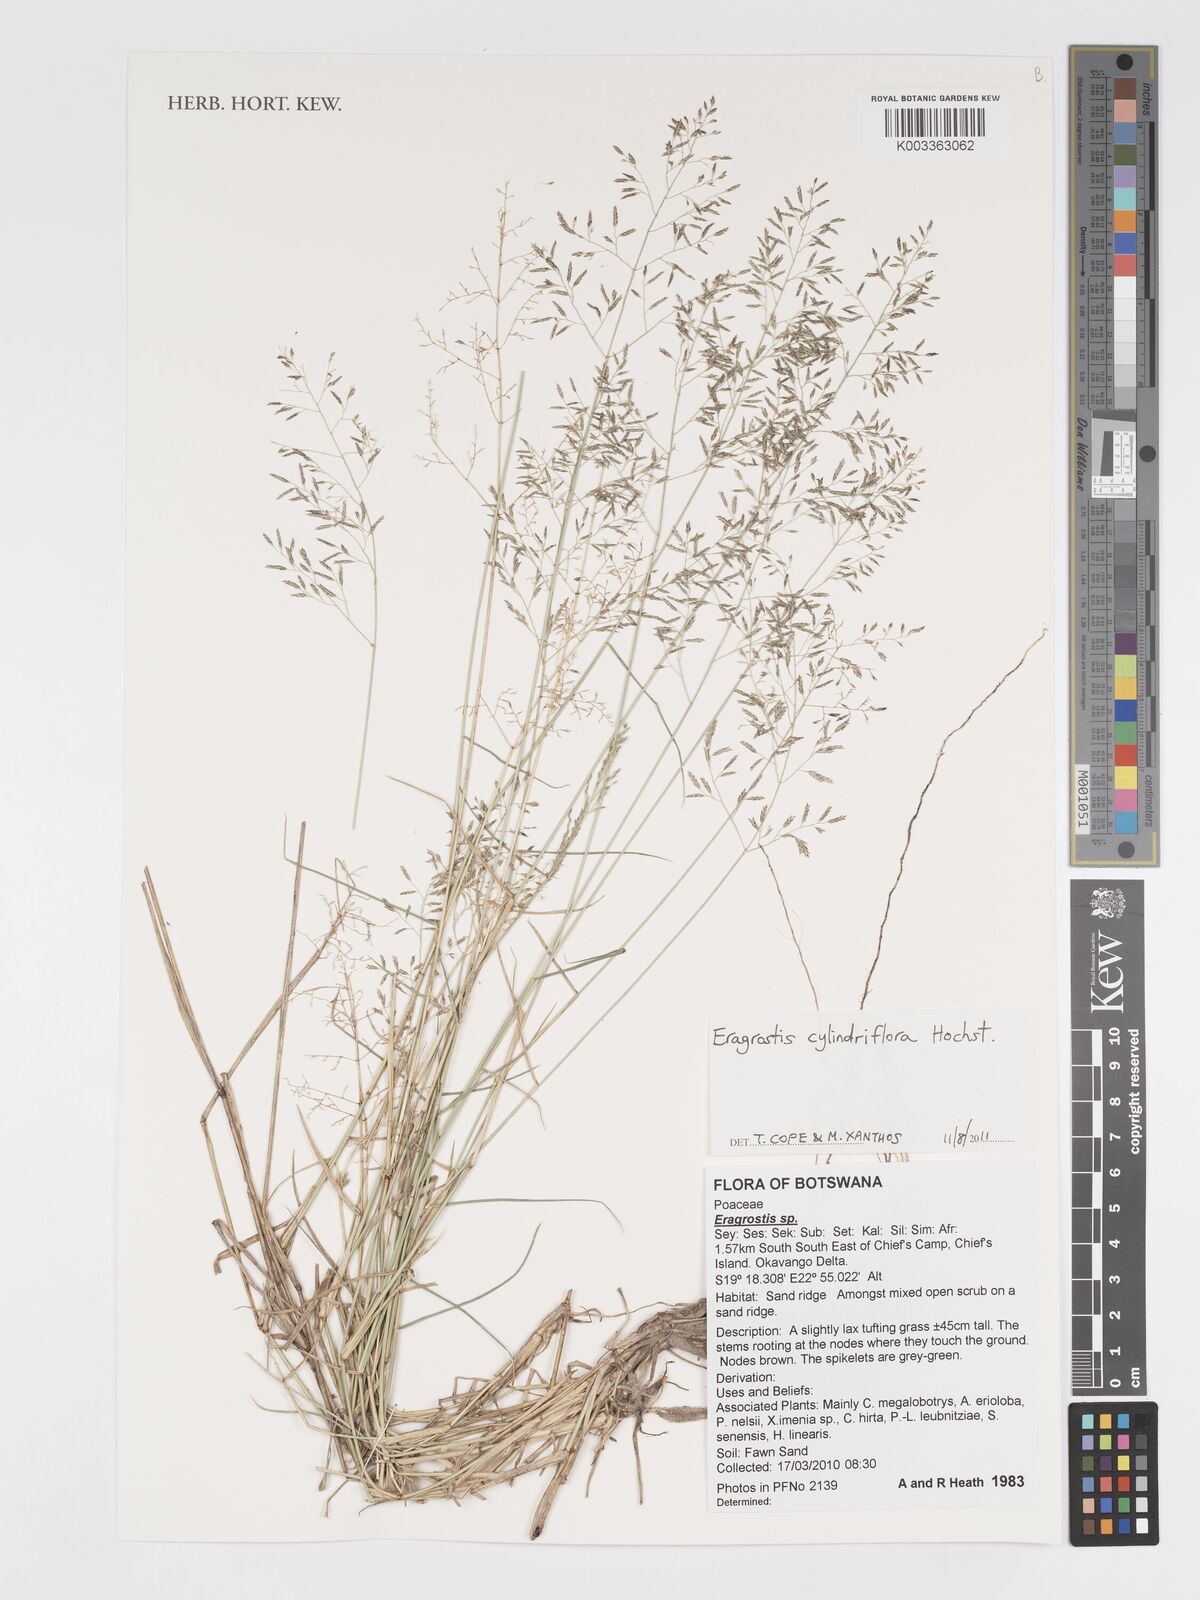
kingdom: Plantae
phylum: Tracheophyta
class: Liliopsida
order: Poales
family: Poaceae
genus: Eragrostis
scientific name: Eragrostis cylindriflora
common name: Cylinderflower lovegrass
